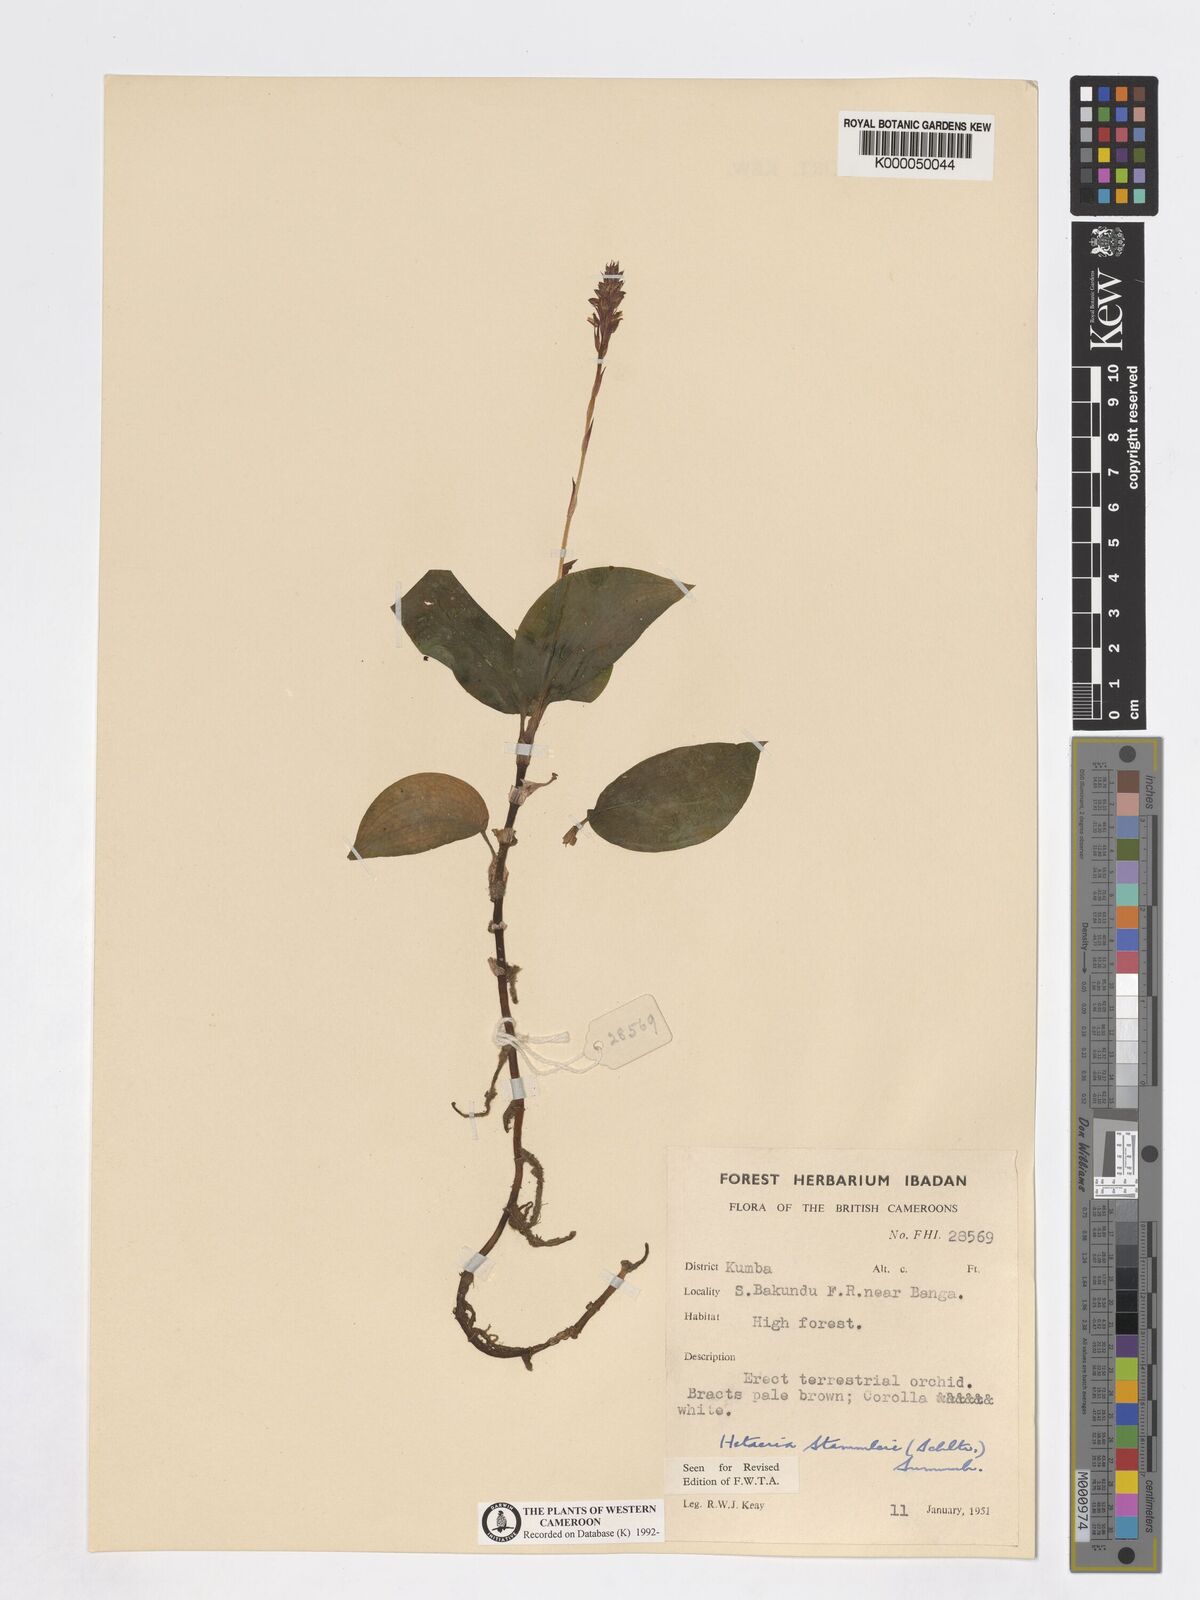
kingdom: Plantae
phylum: Tracheophyta
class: Liliopsida
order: Asparagales
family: Orchidaceae
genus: Zeuxine
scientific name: Zeuxine stammleri
